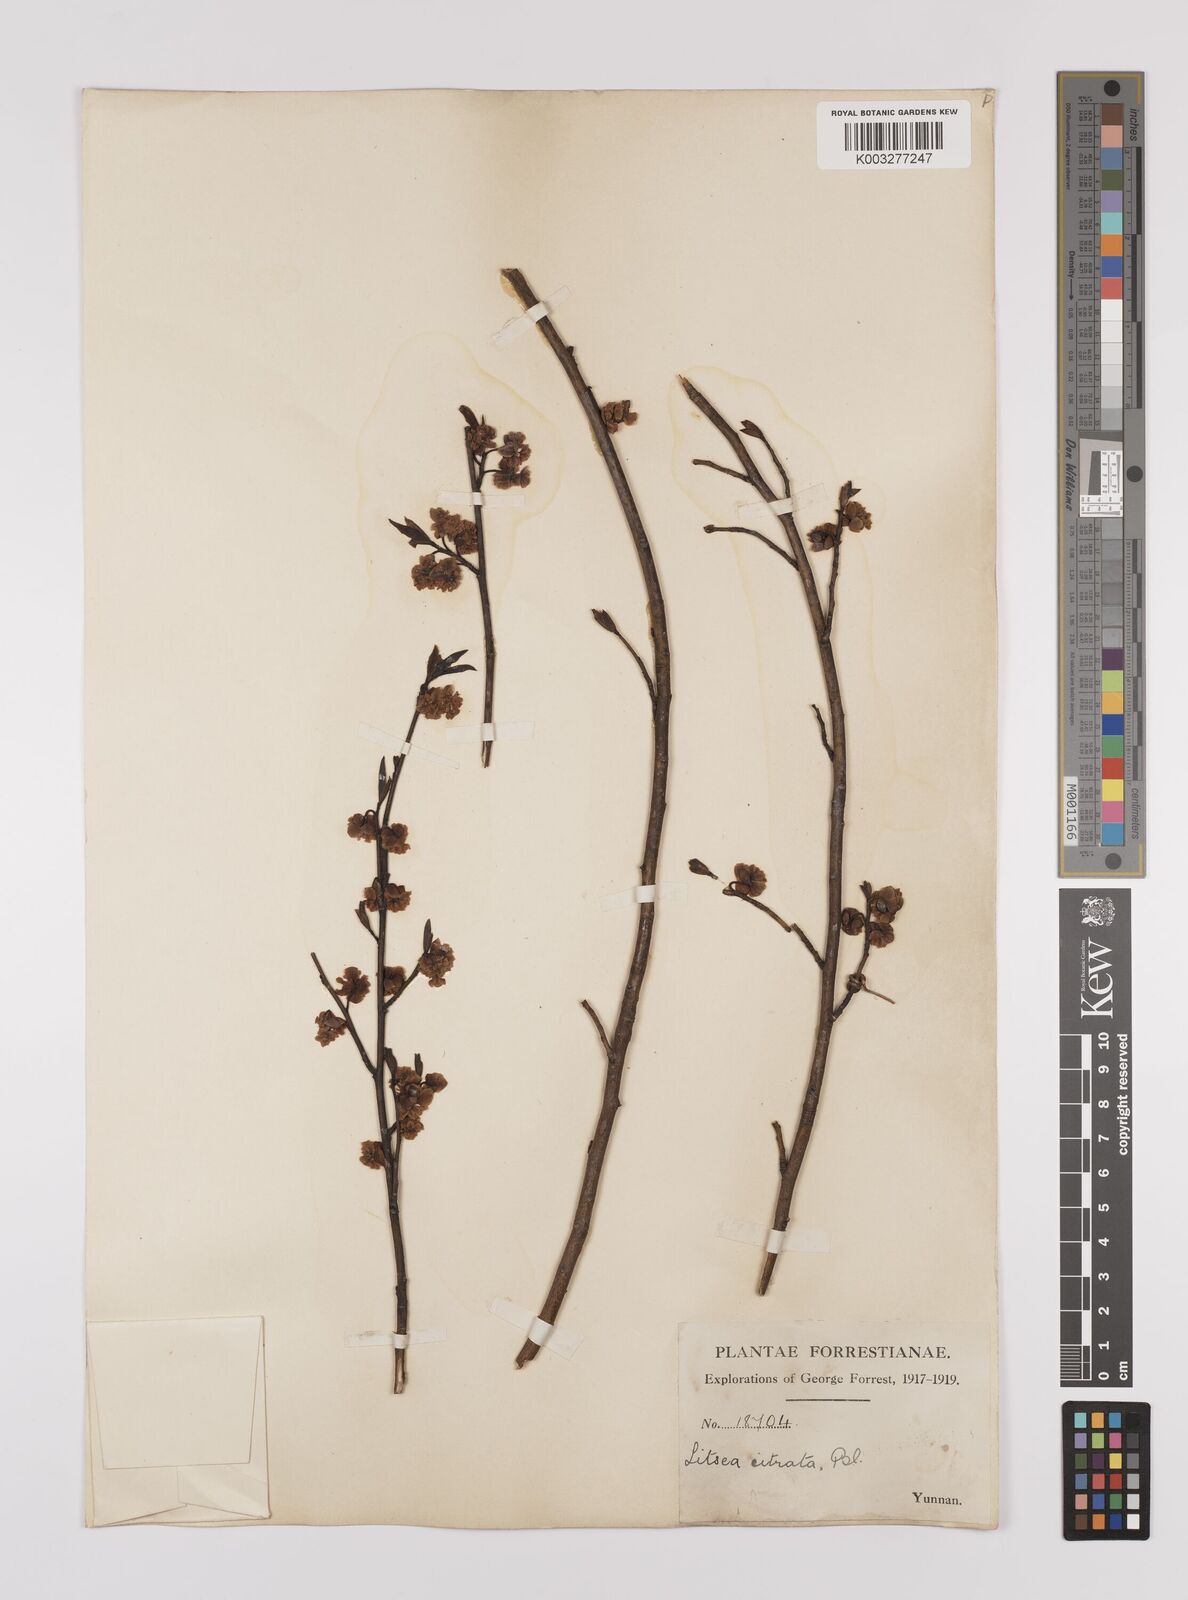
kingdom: Plantae
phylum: Tracheophyta
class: Magnoliopsida
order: Laurales
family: Lauraceae
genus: Litsea
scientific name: Litsea cubeba
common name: Mountain-pepper
